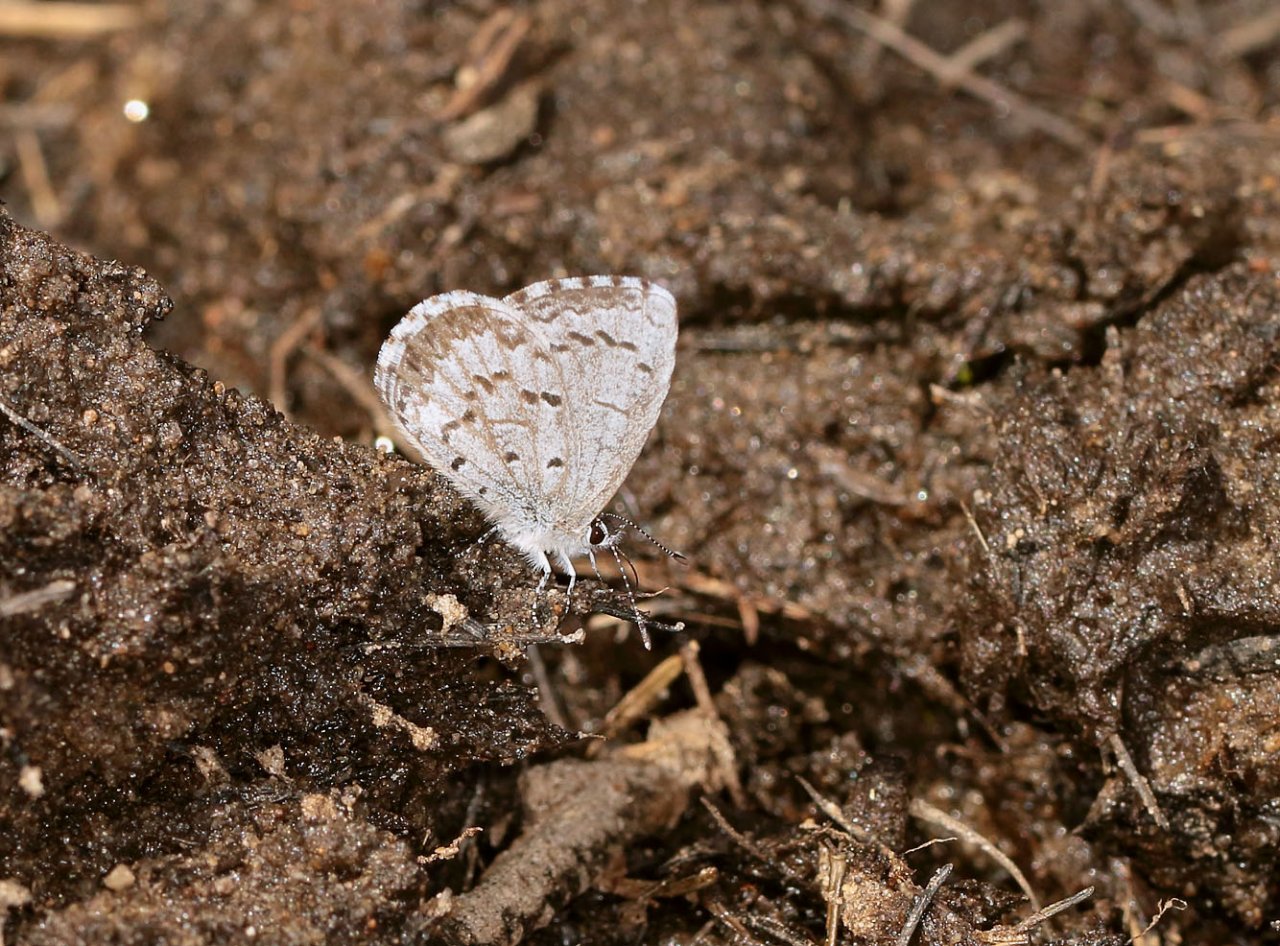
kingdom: Animalia
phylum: Arthropoda
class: Insecta
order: Lepidoptera
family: Lycaenidae
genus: Celastrina
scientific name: Celastrina lucia
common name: Northern Spring Azure
